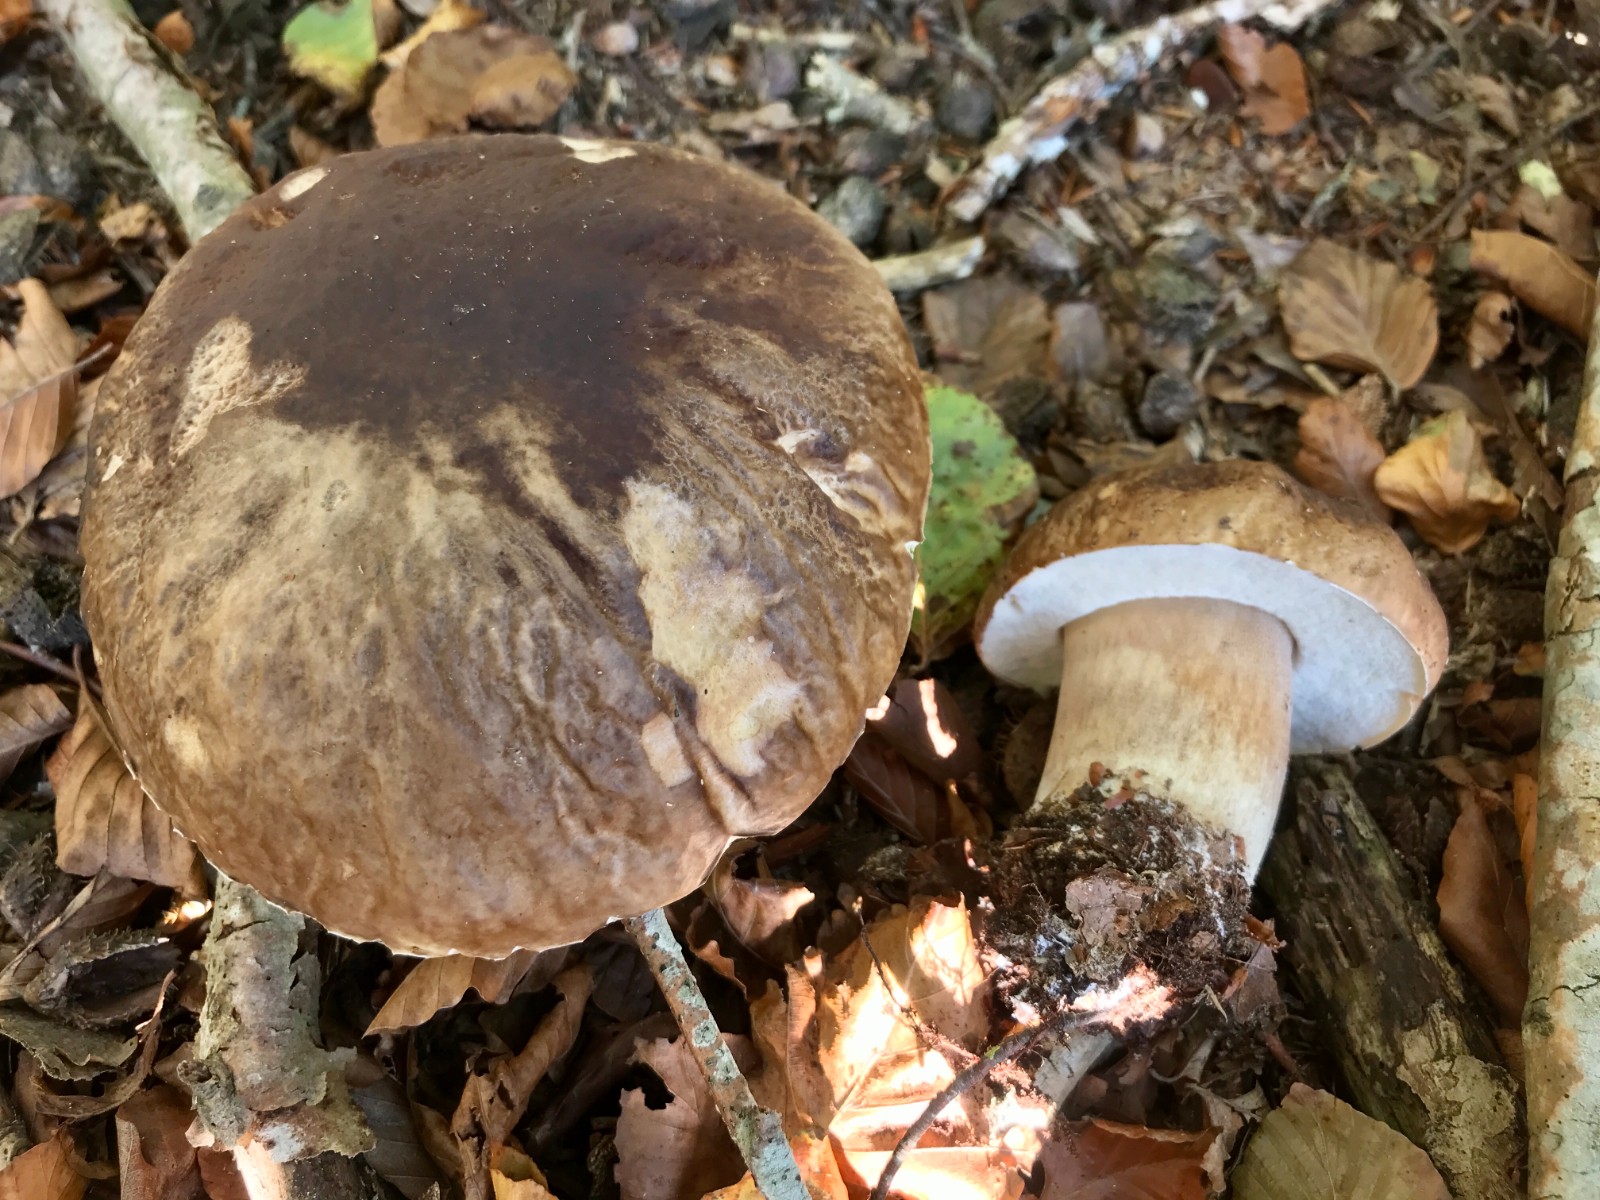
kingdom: Fungi
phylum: Basidiomycota
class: Agaricomycetes
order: Boletales
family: Boletaceae
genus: Boletus
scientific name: Boletus edulis
